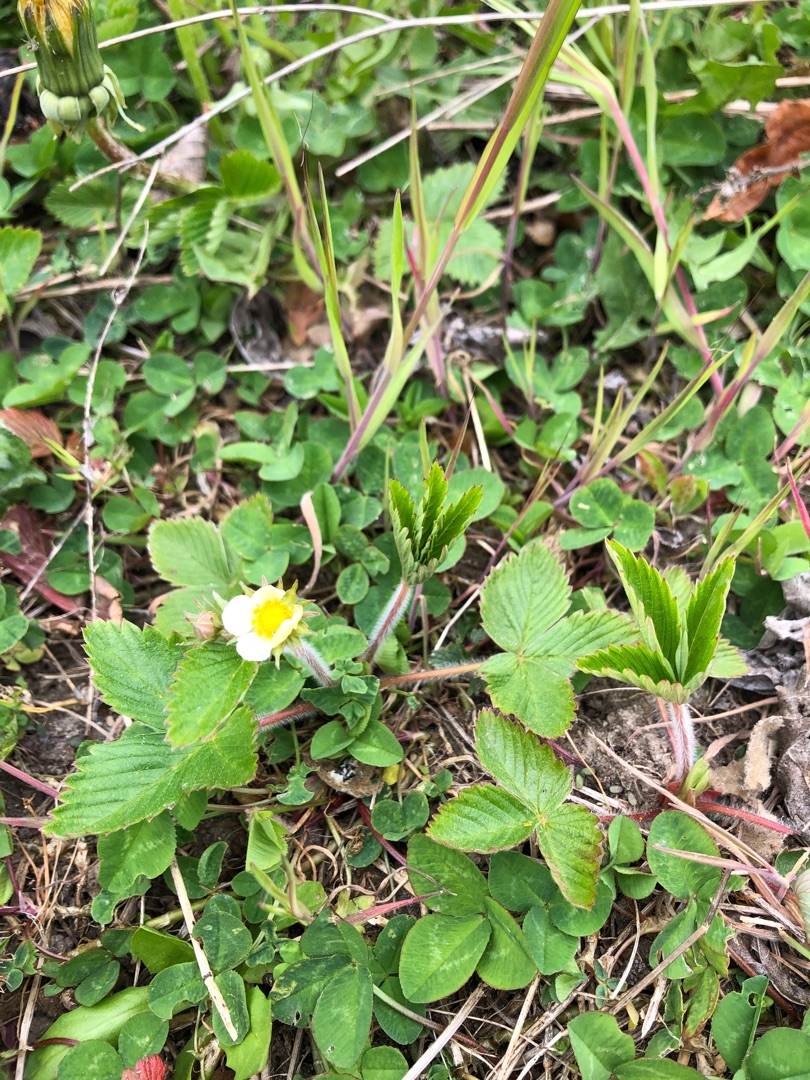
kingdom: Plantae
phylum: Tracheophyta
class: Magnoliopsida
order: Rosales
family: Rosaceae
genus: Fragaria
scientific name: Fragaria vesca
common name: Skov-jordbær
